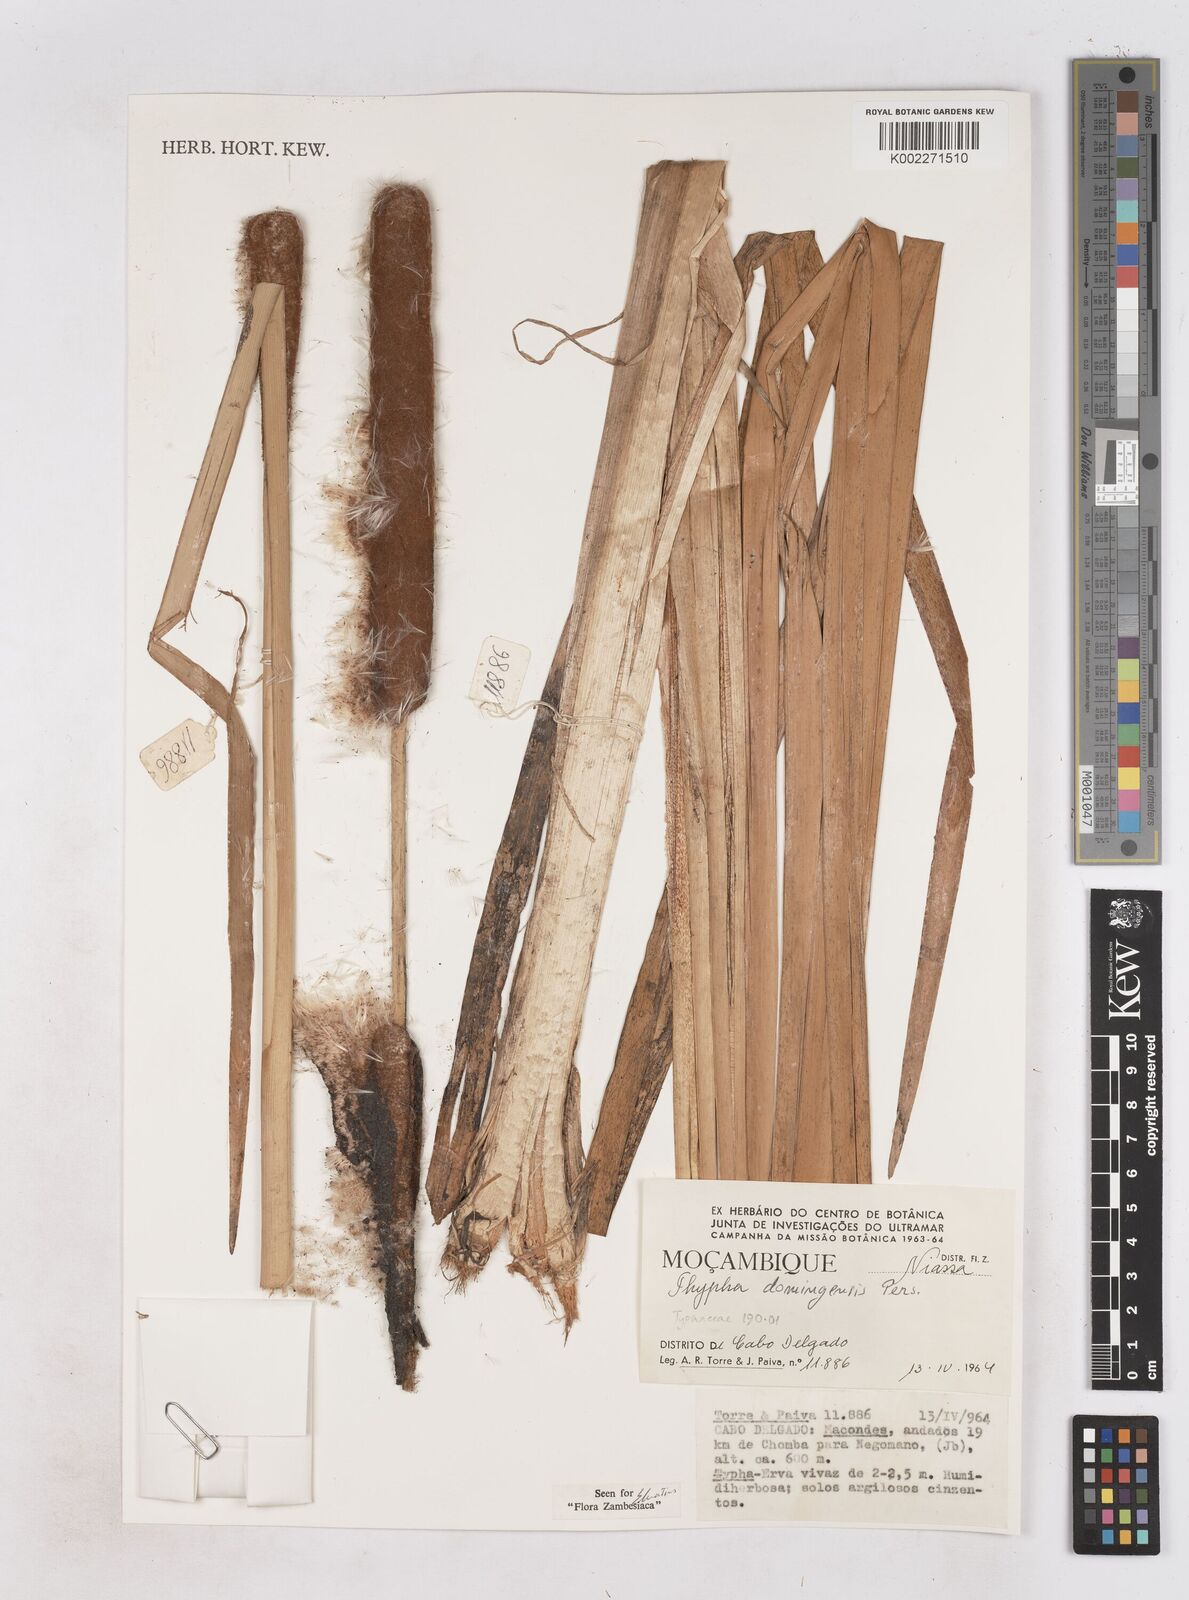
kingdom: Plantae
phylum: Tracheophyta
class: Liliopsida
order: Poales
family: Typhaceae
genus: Typha
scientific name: Typha domingensis
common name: Southern cattail
